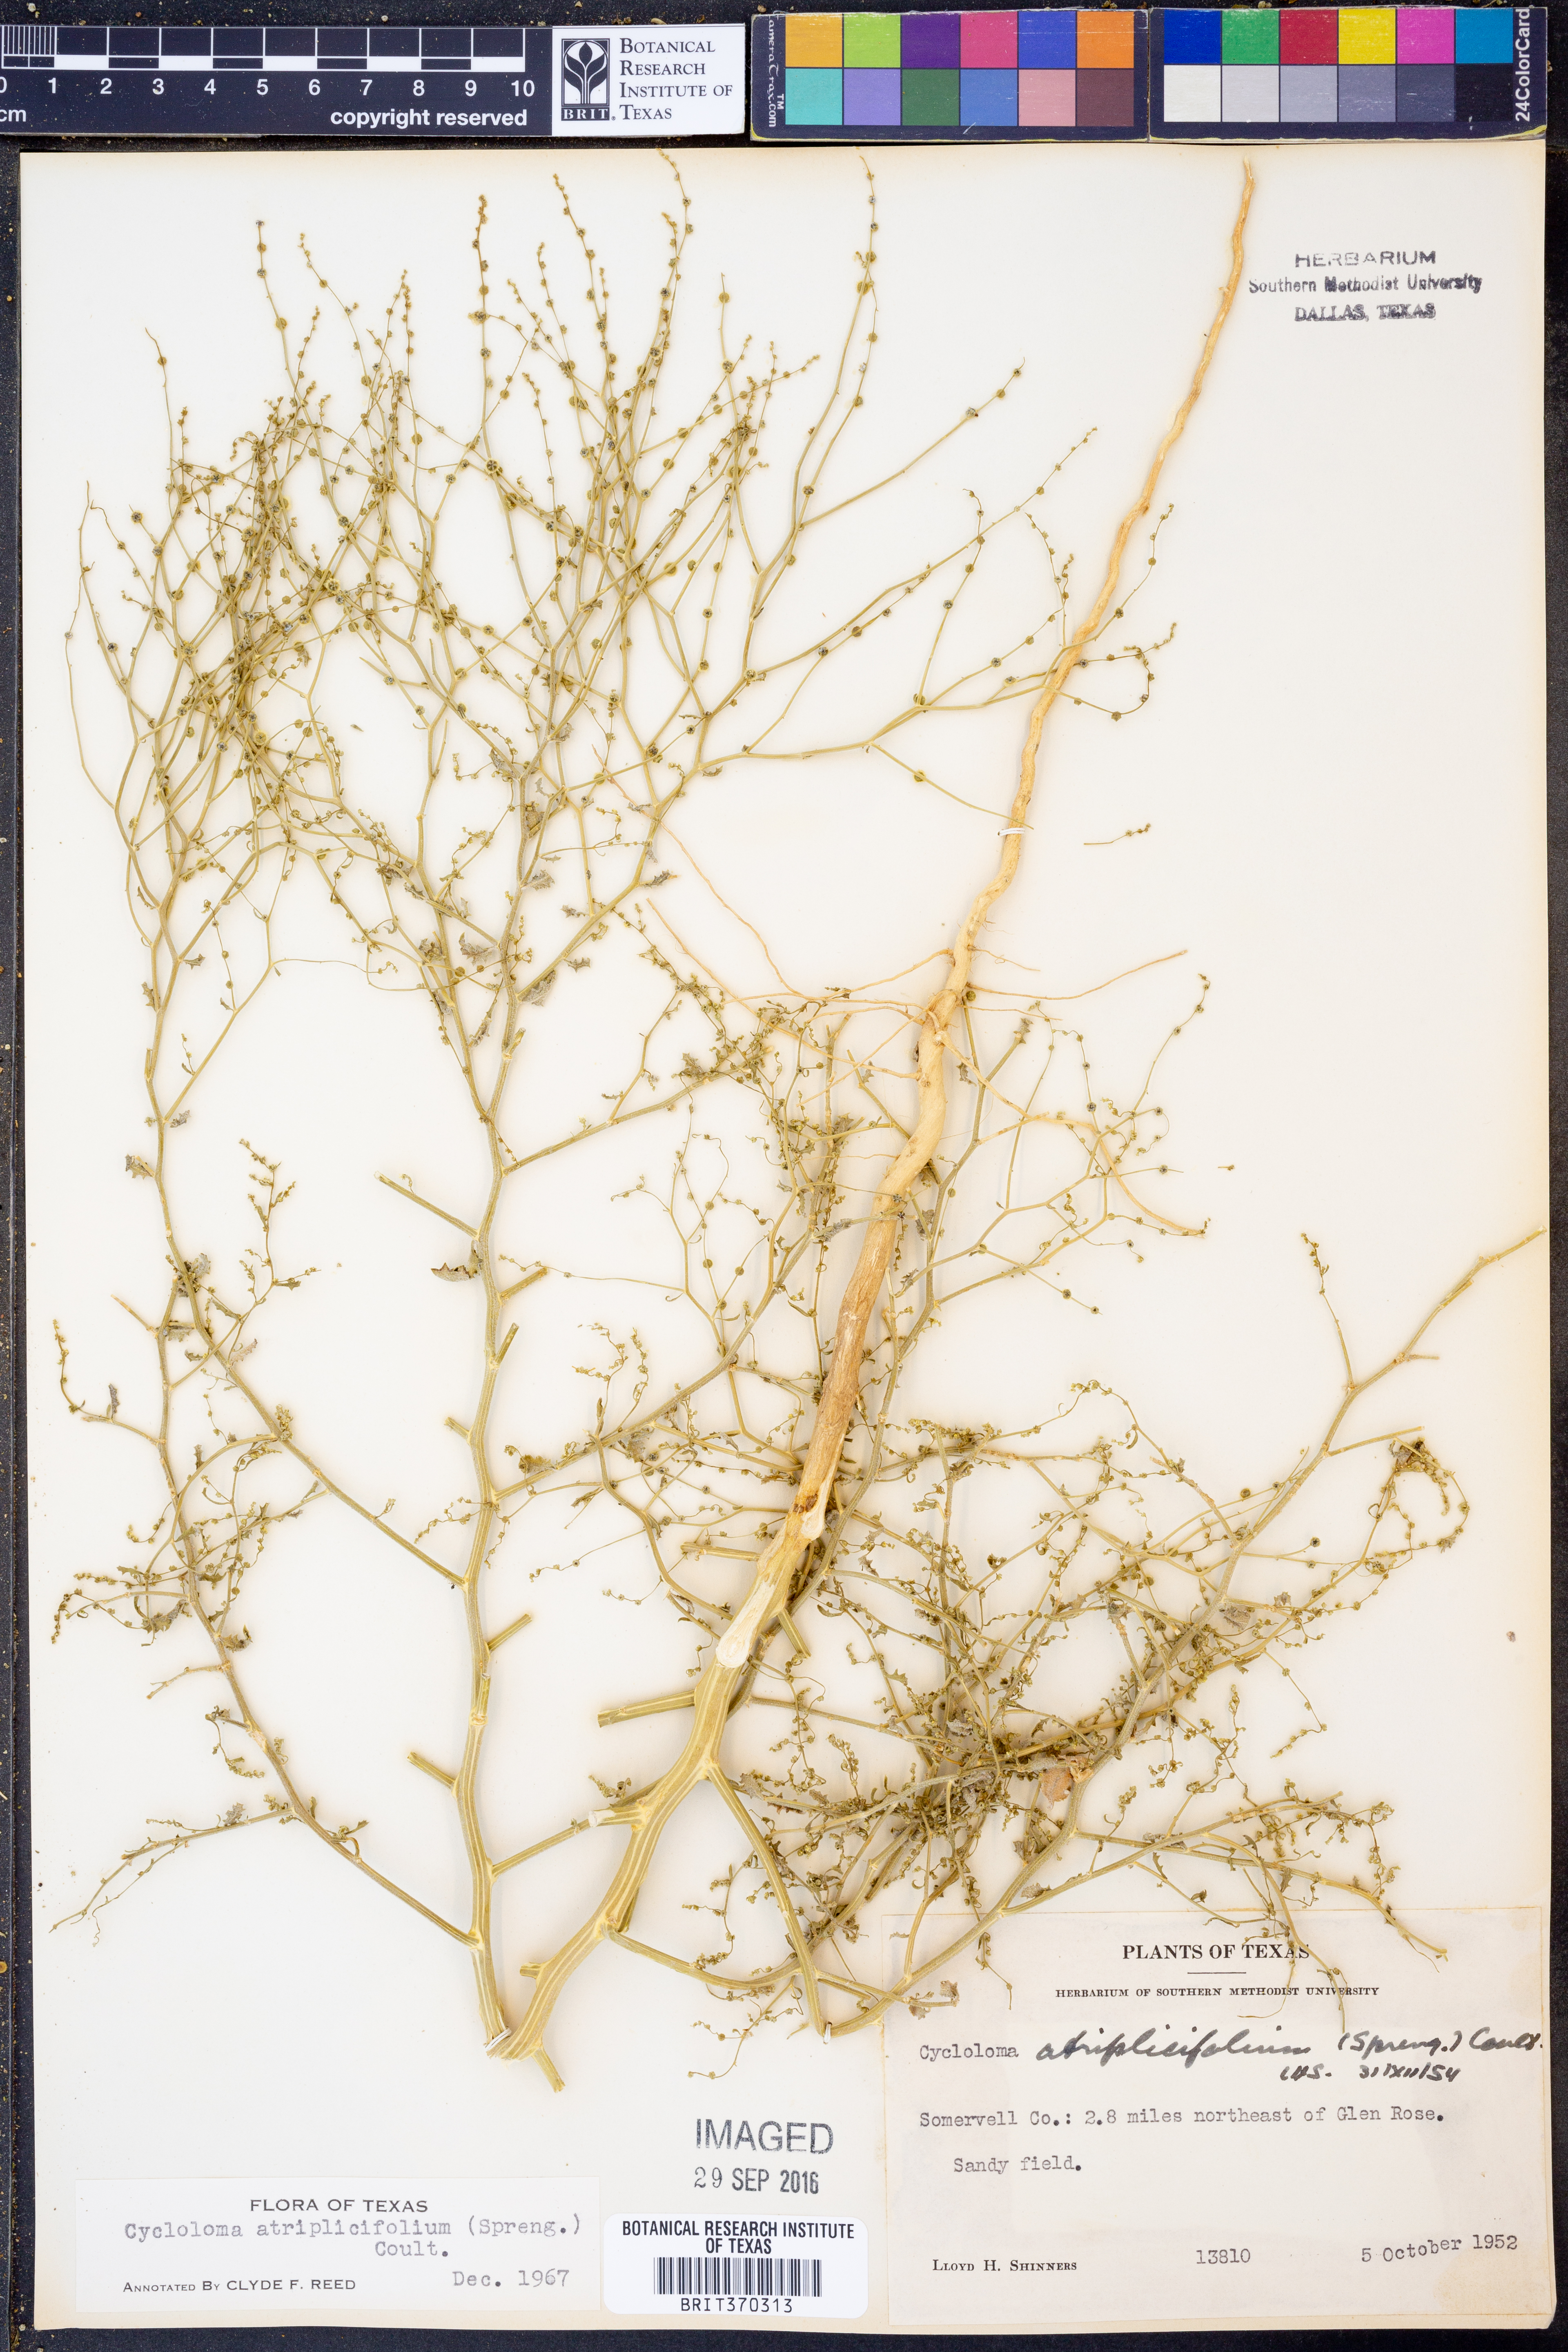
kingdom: Plantae
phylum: Tracheophyta
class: Magnoliopsida
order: Caryophyllales
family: Amaranthaceae
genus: Dysphania
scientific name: Dysphania atriplicifolia
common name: Plains tumbleweed
